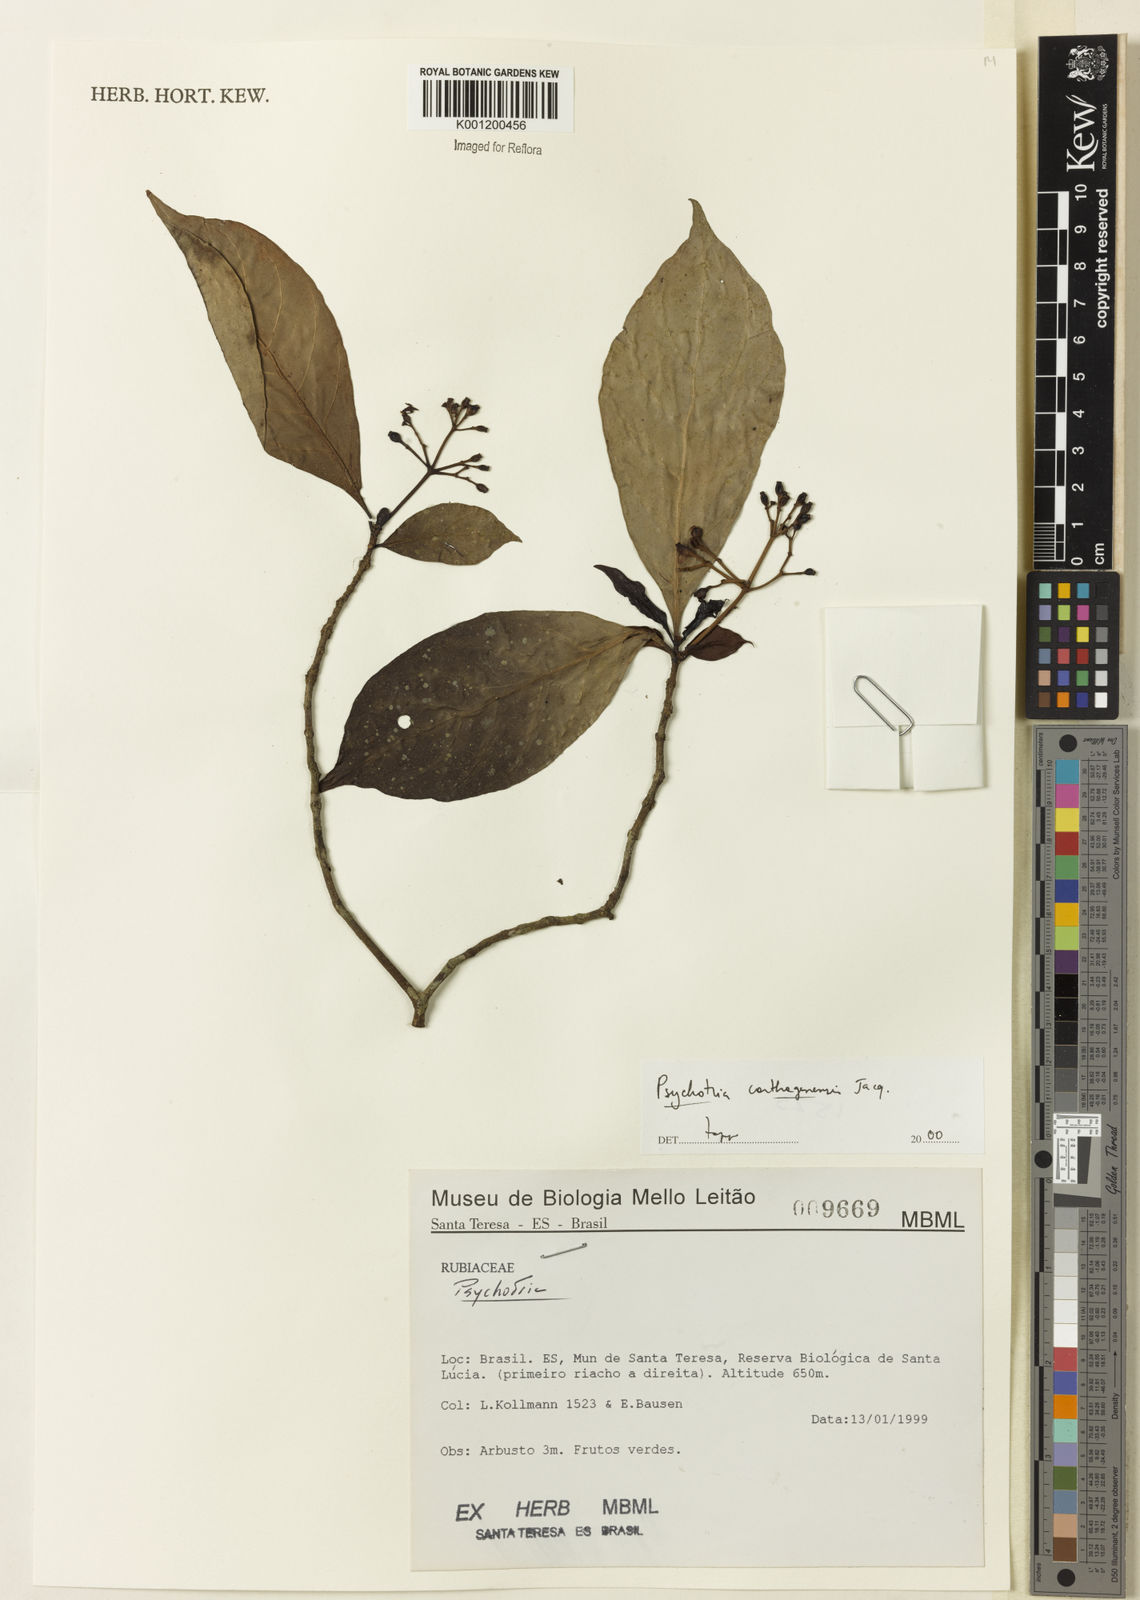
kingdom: Plantae
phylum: Tracheophyta
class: Magnoliopsida
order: Gentianales
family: Rubiaceae
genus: Psychotria
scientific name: Psychotria carthagenensis
